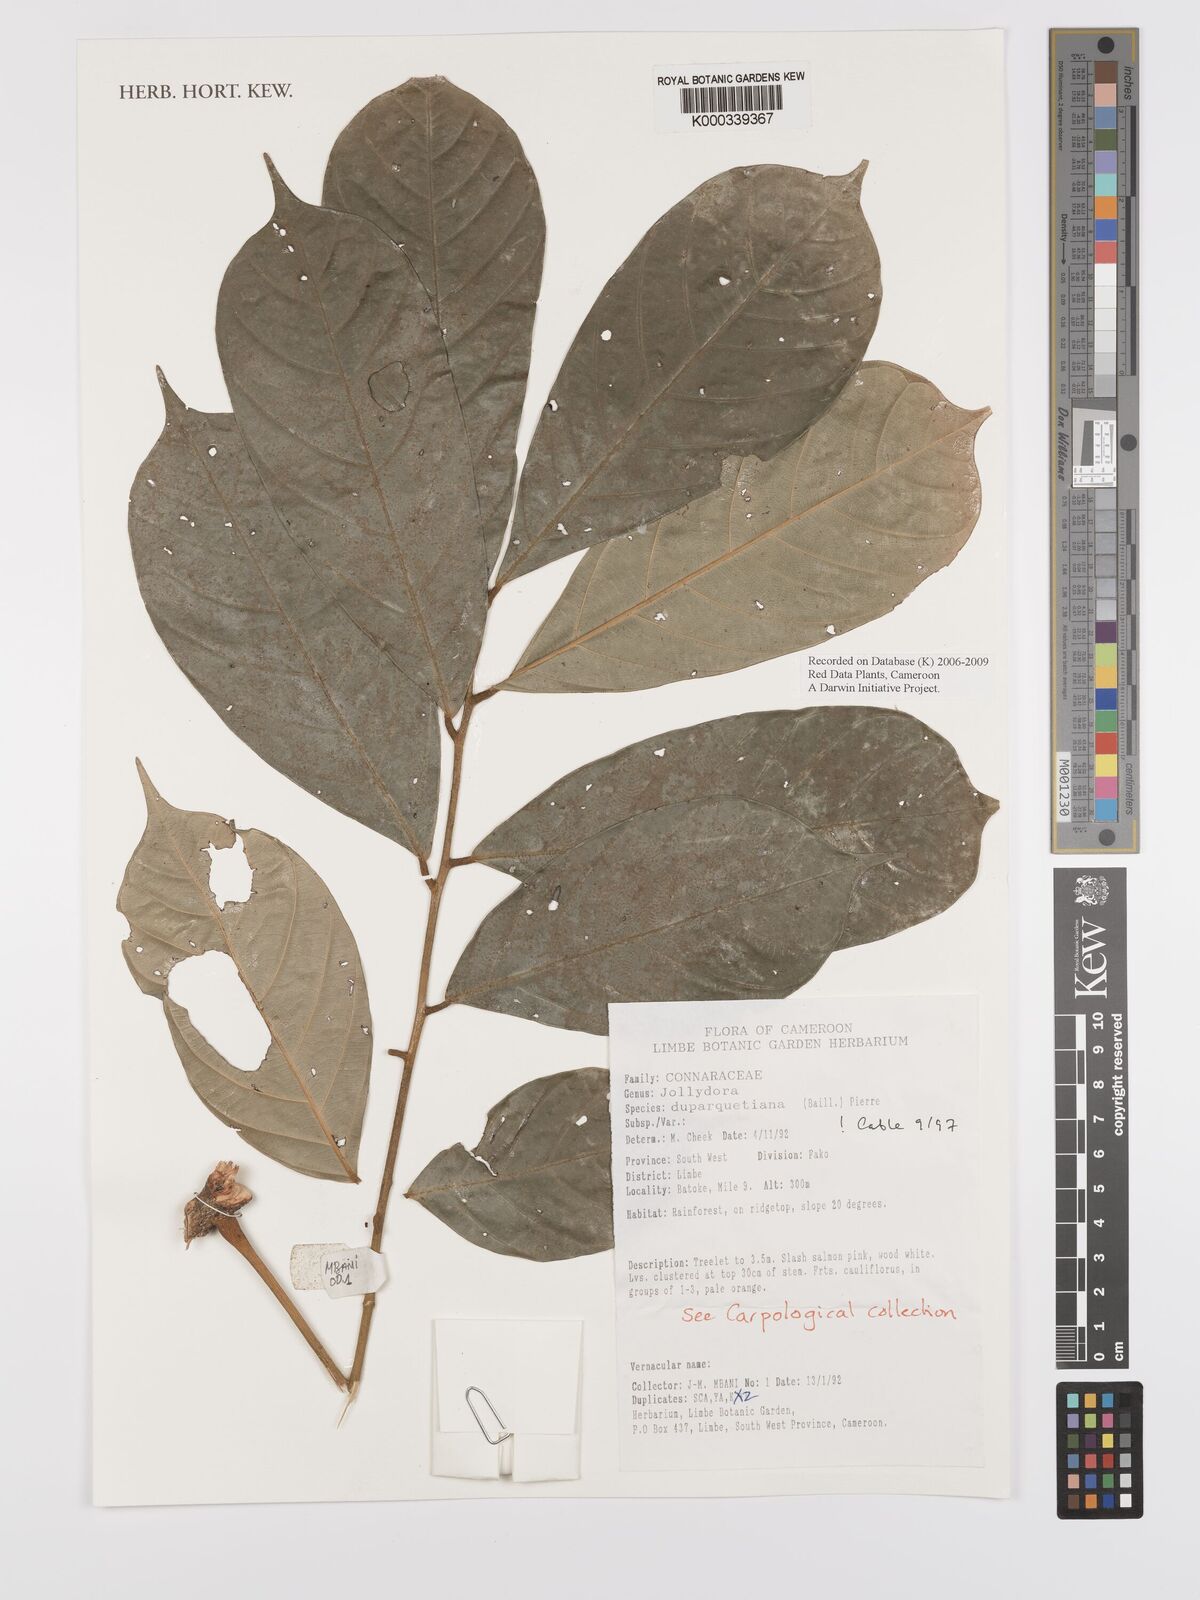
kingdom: Plantae
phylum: Tracheophyta
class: Magnoliopsida
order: Oxalidales
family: Connaraceae
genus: Jollydora
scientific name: Jollydora duparquetiana
